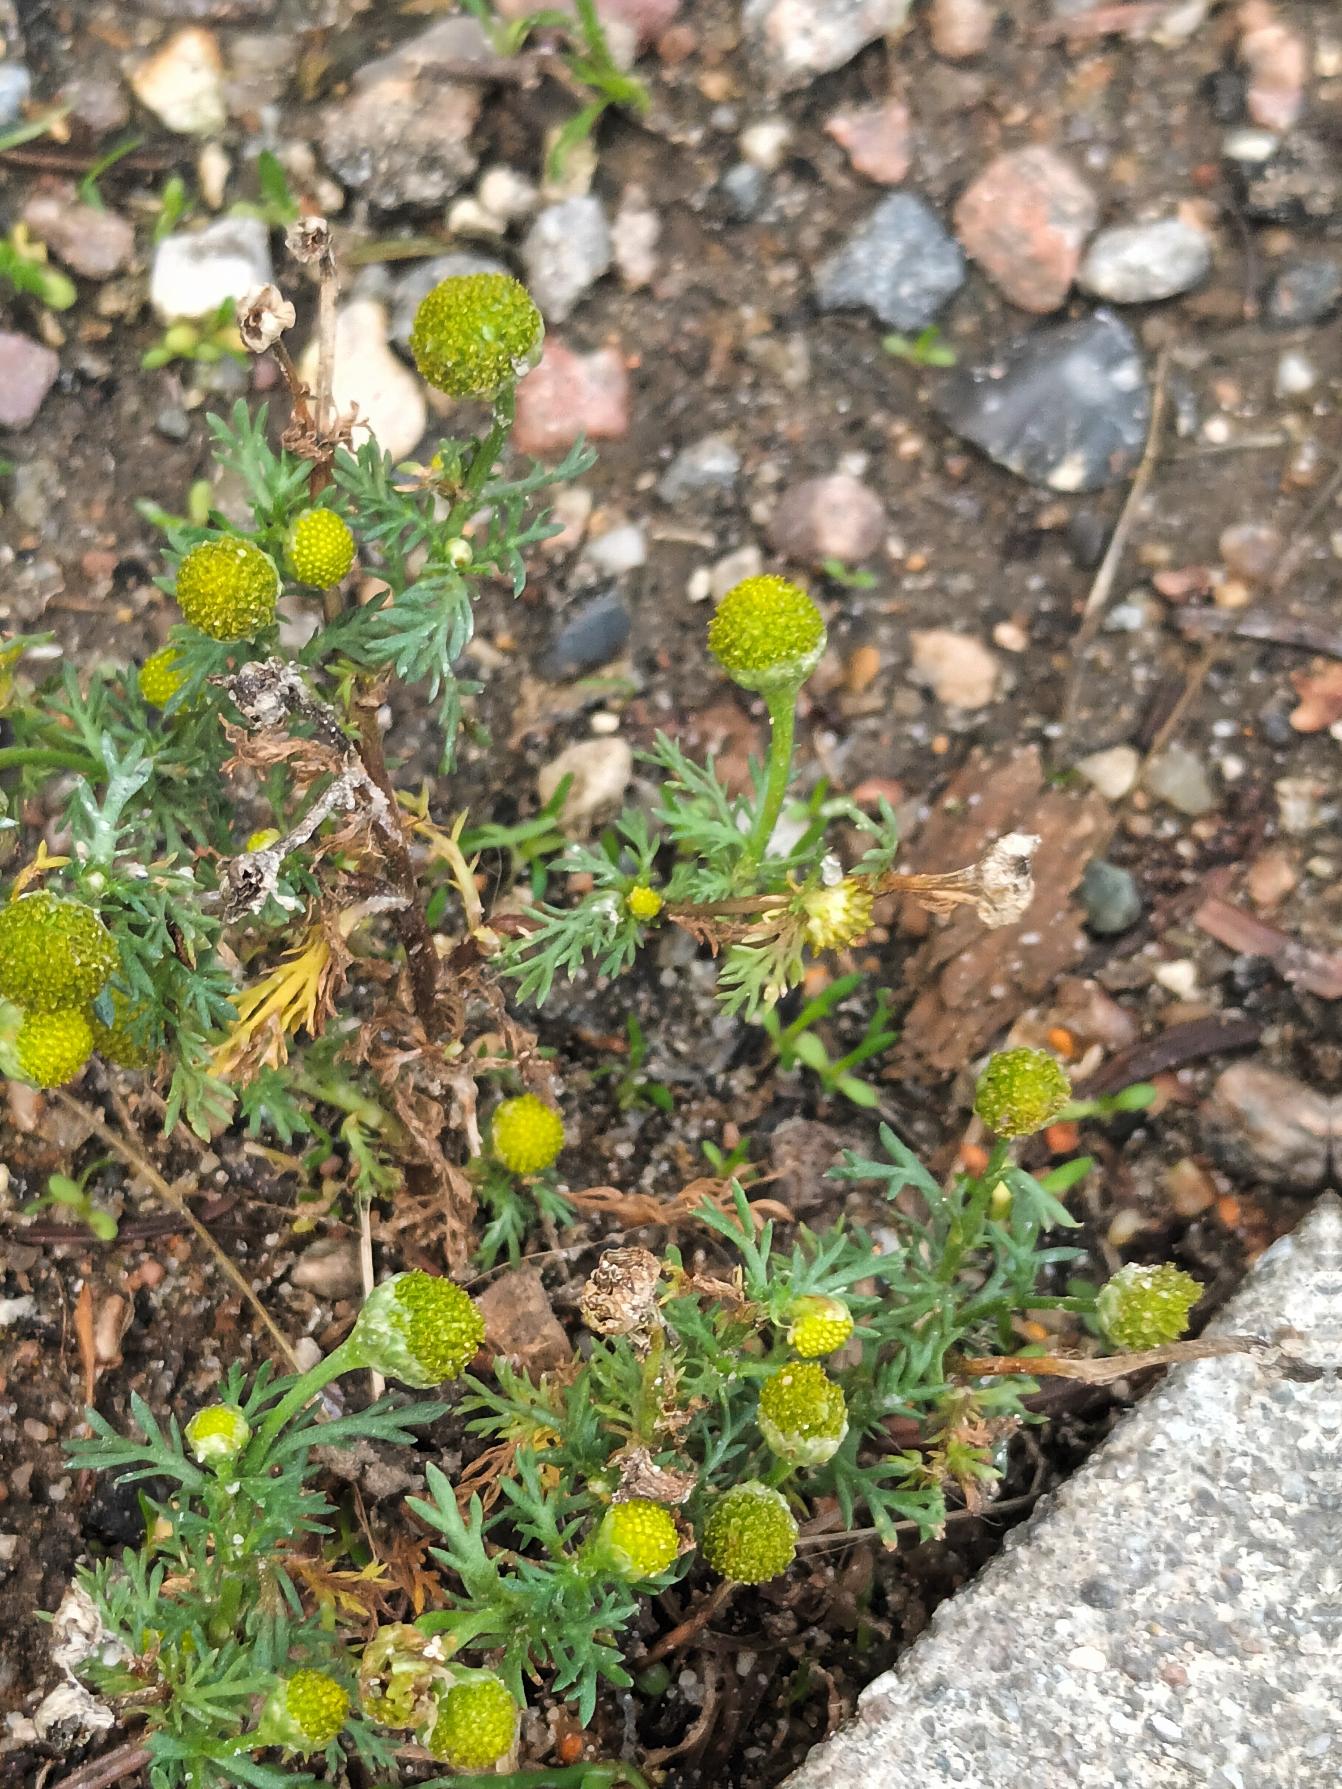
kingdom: Plantae
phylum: Tracheophyta
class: Magnoliopsida
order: Asterales
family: Asteraceae
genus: Matricaria
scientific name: Matricaria discoidea
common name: Skive-kamille
